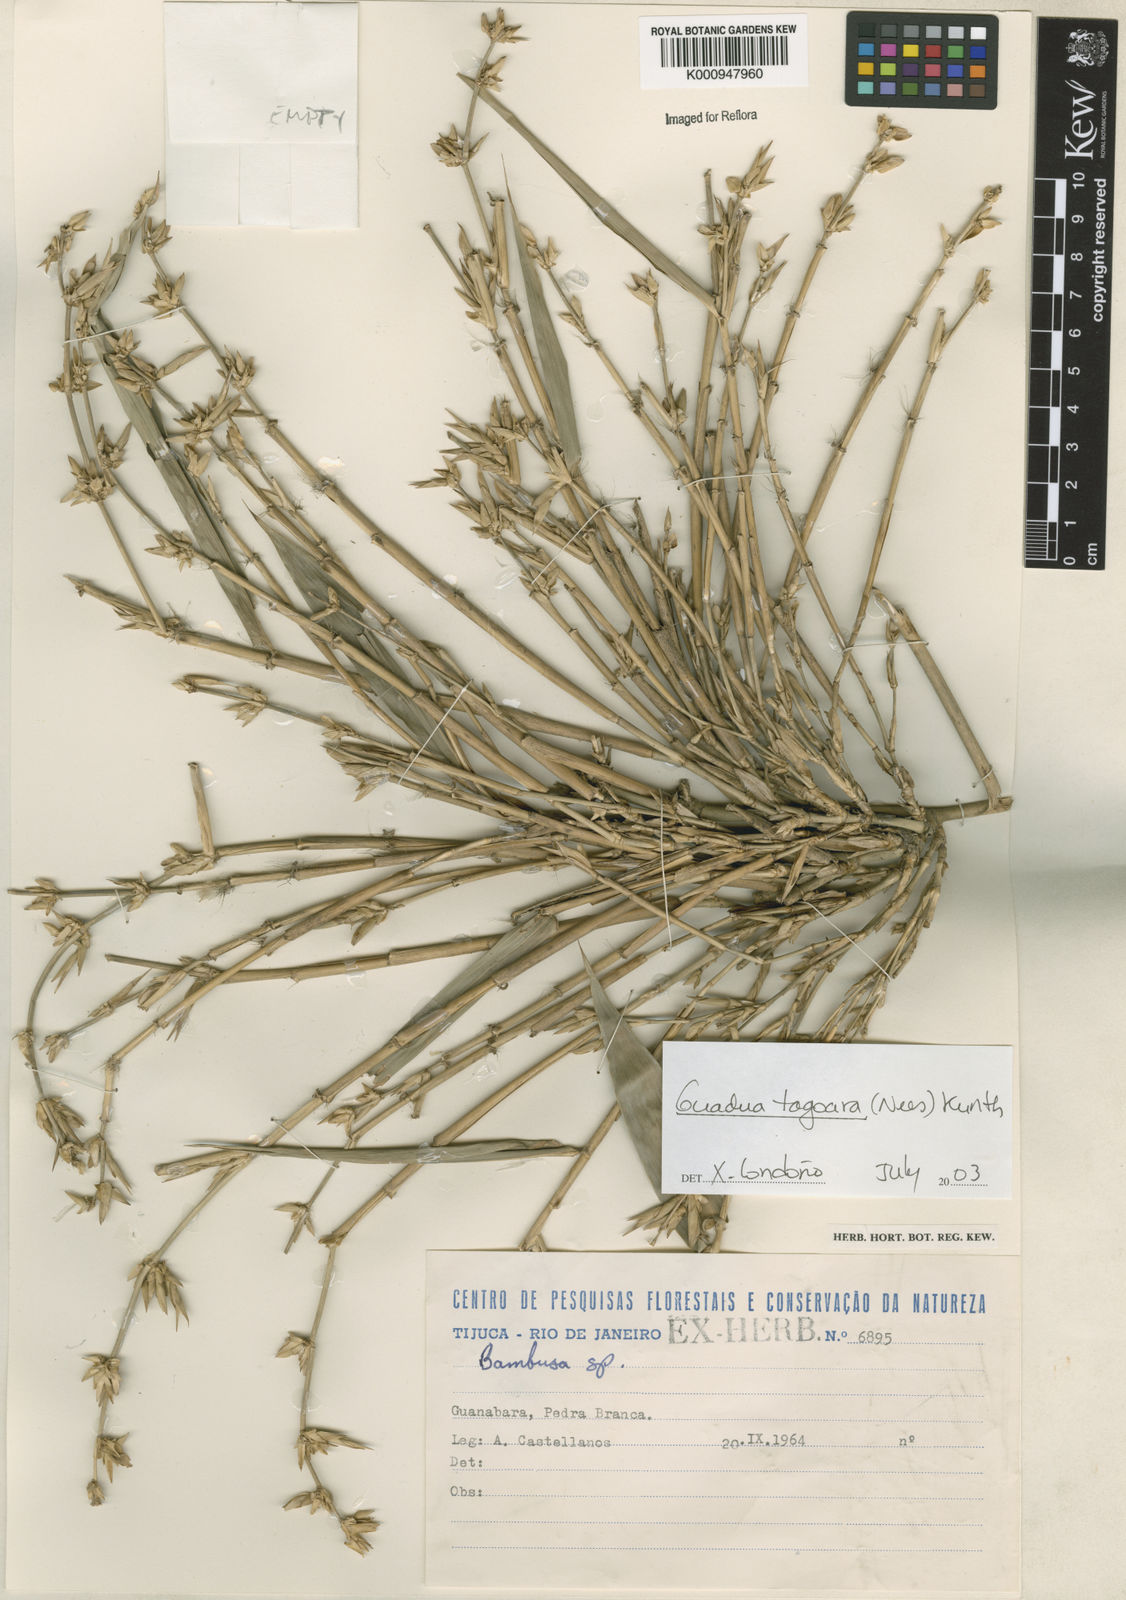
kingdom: Plantae
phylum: Tracheophyta
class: Liliopsida
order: Poales
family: Poaceae
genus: Guadua
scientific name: Guadua tagoara
